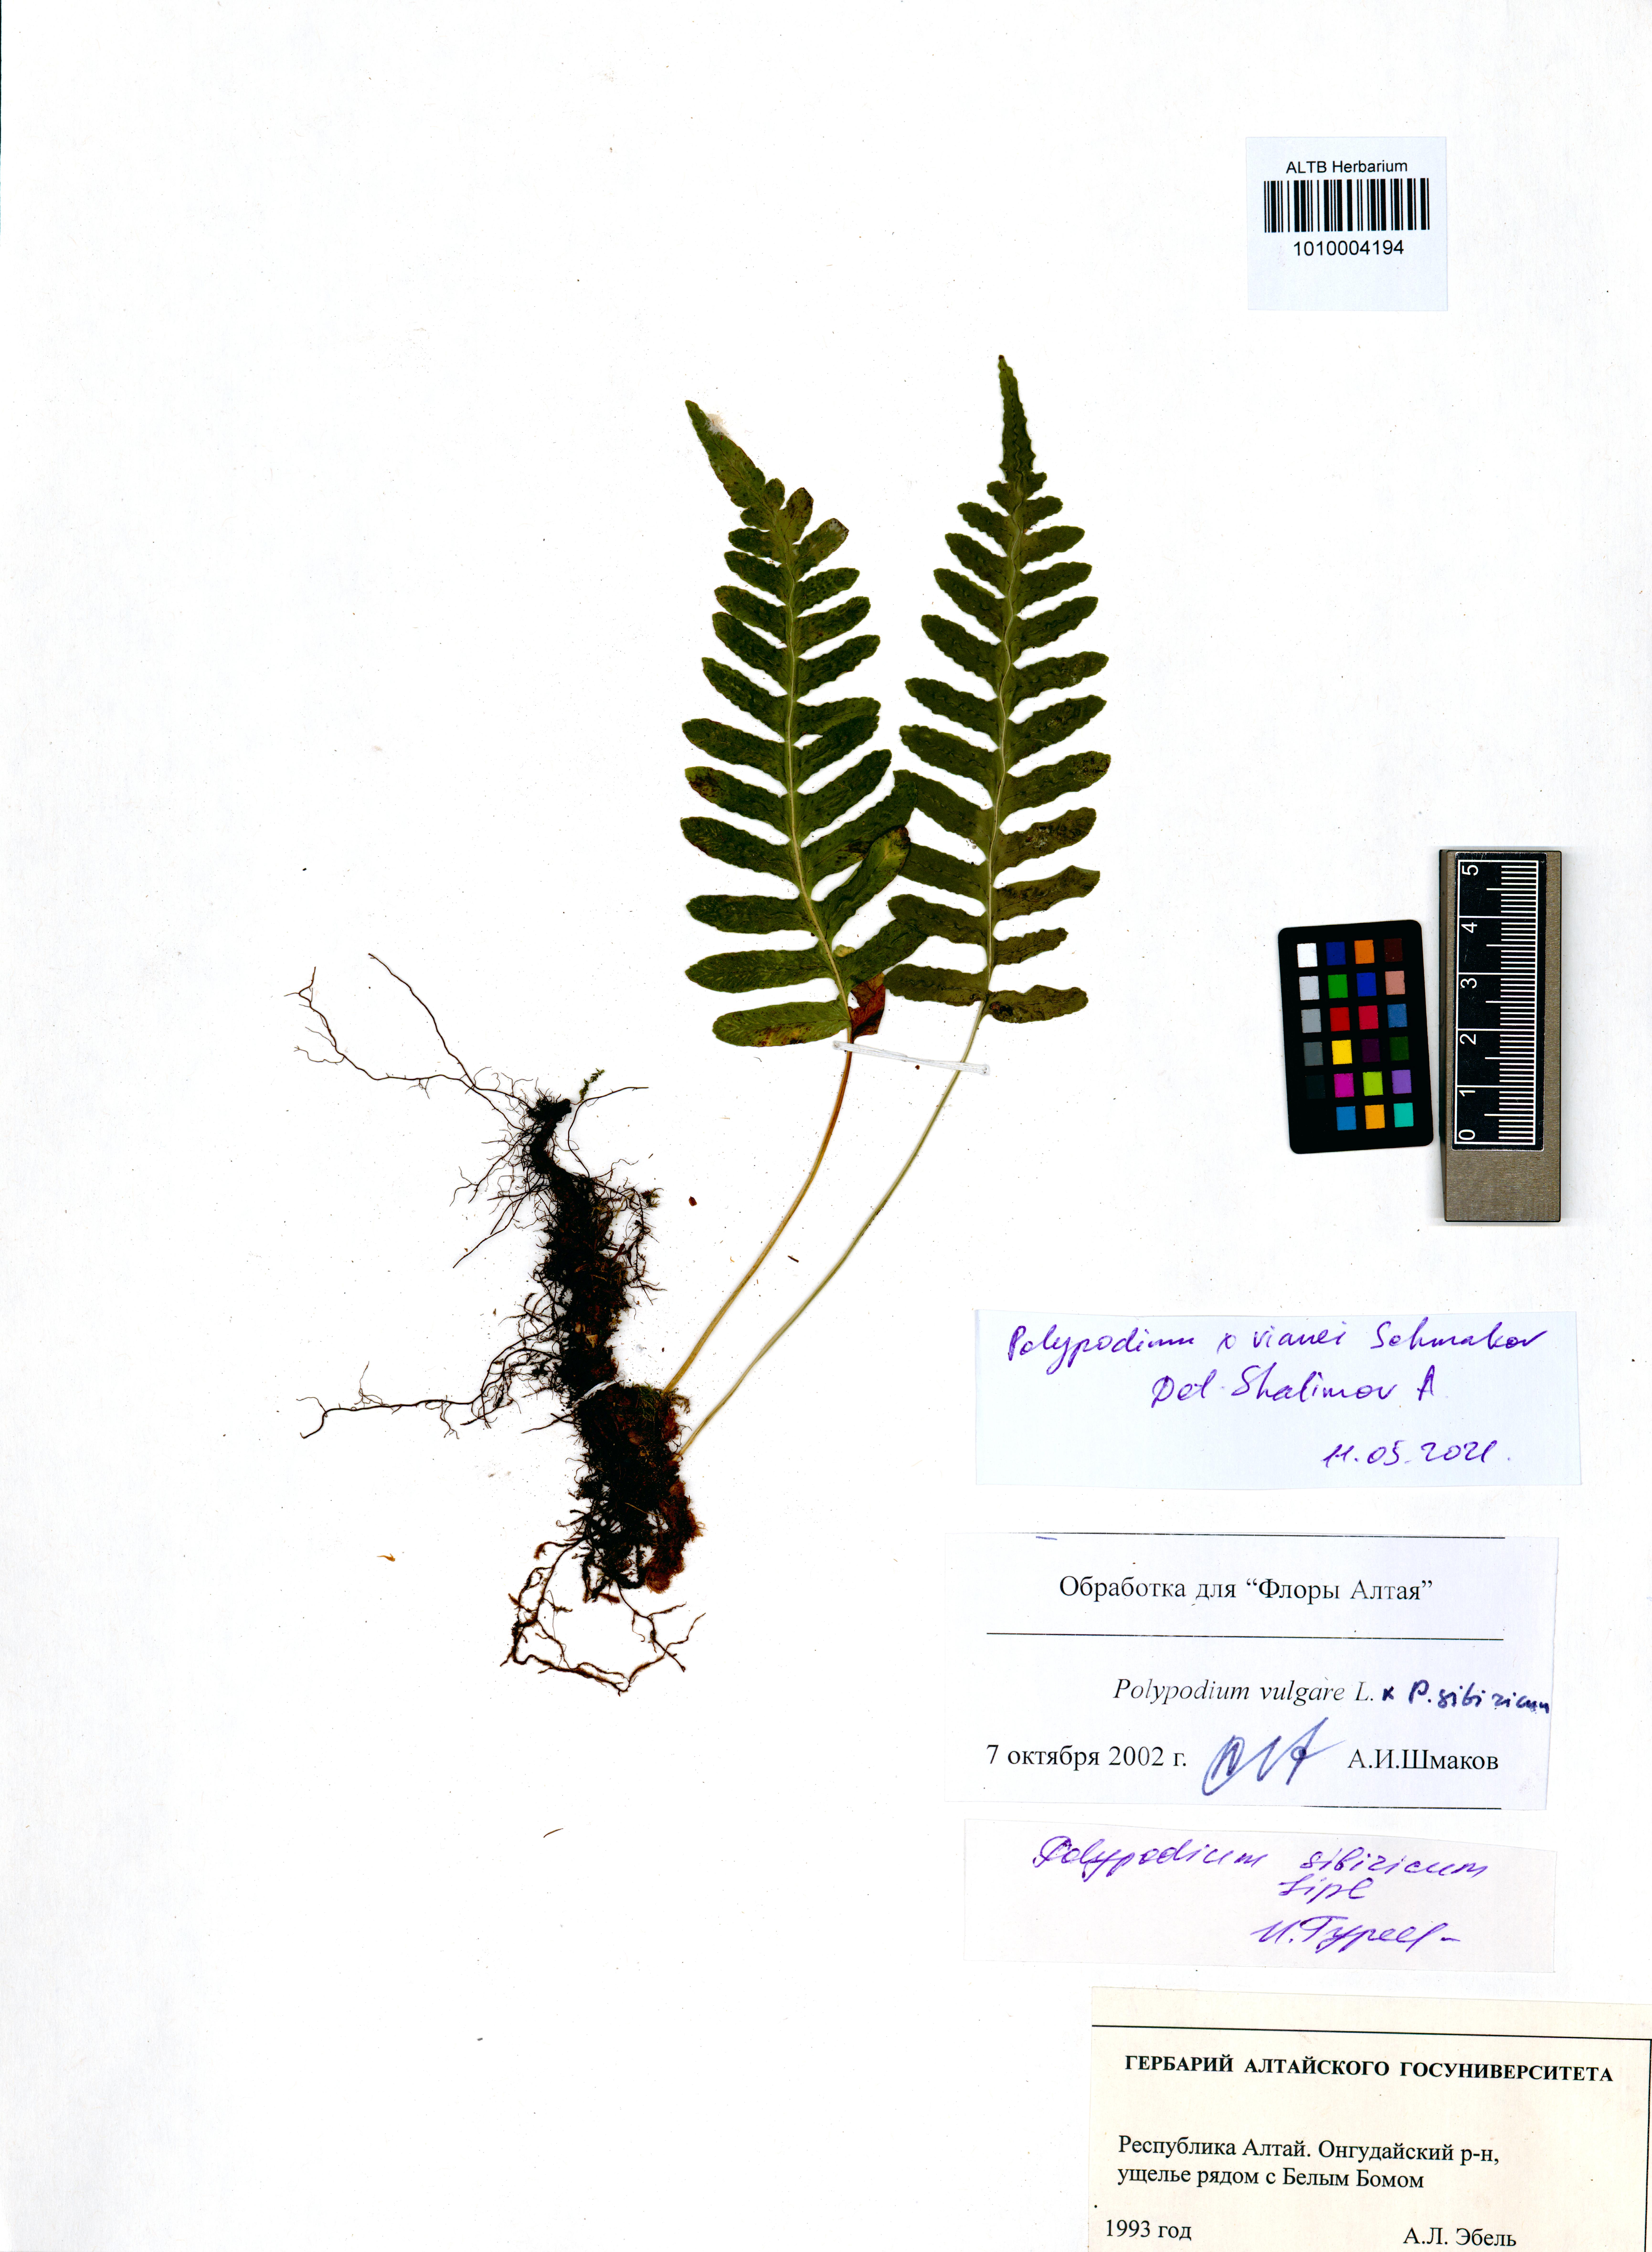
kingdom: Plantae
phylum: Tracheophyta
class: Polypodiopsida
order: Polypodiales
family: Polypodiaceae
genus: Polypodium
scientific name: Polypodium vianei
